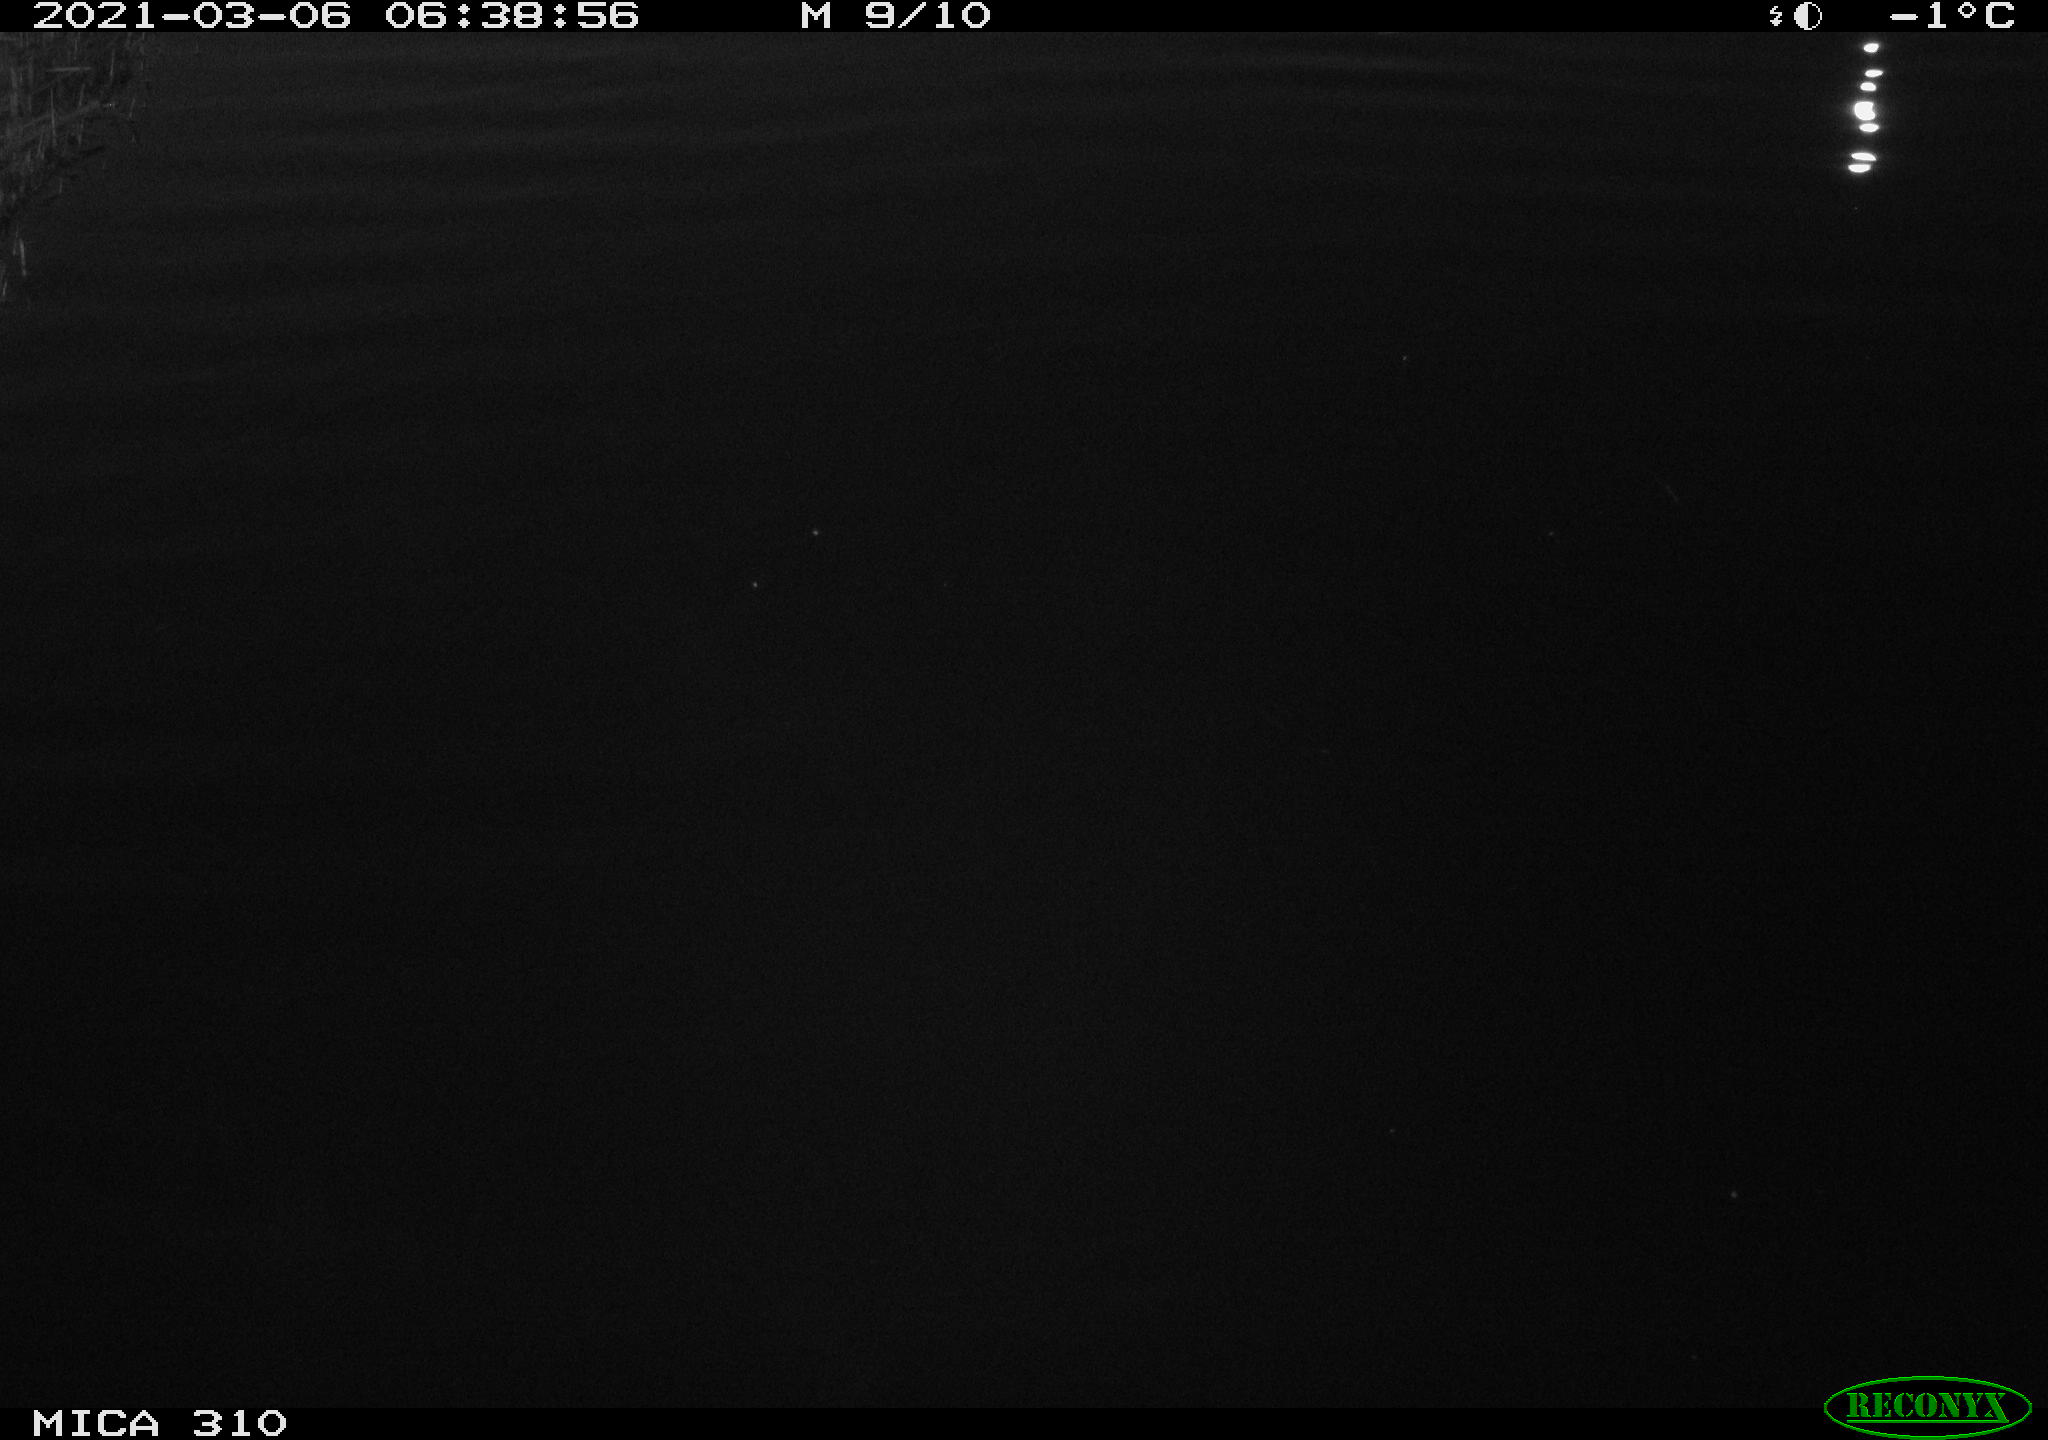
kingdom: Animalia
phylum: Chordata
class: Aves
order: Anseriformes
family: Anatidae
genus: Anas
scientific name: Anas platyrhynchos
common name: Mallard
